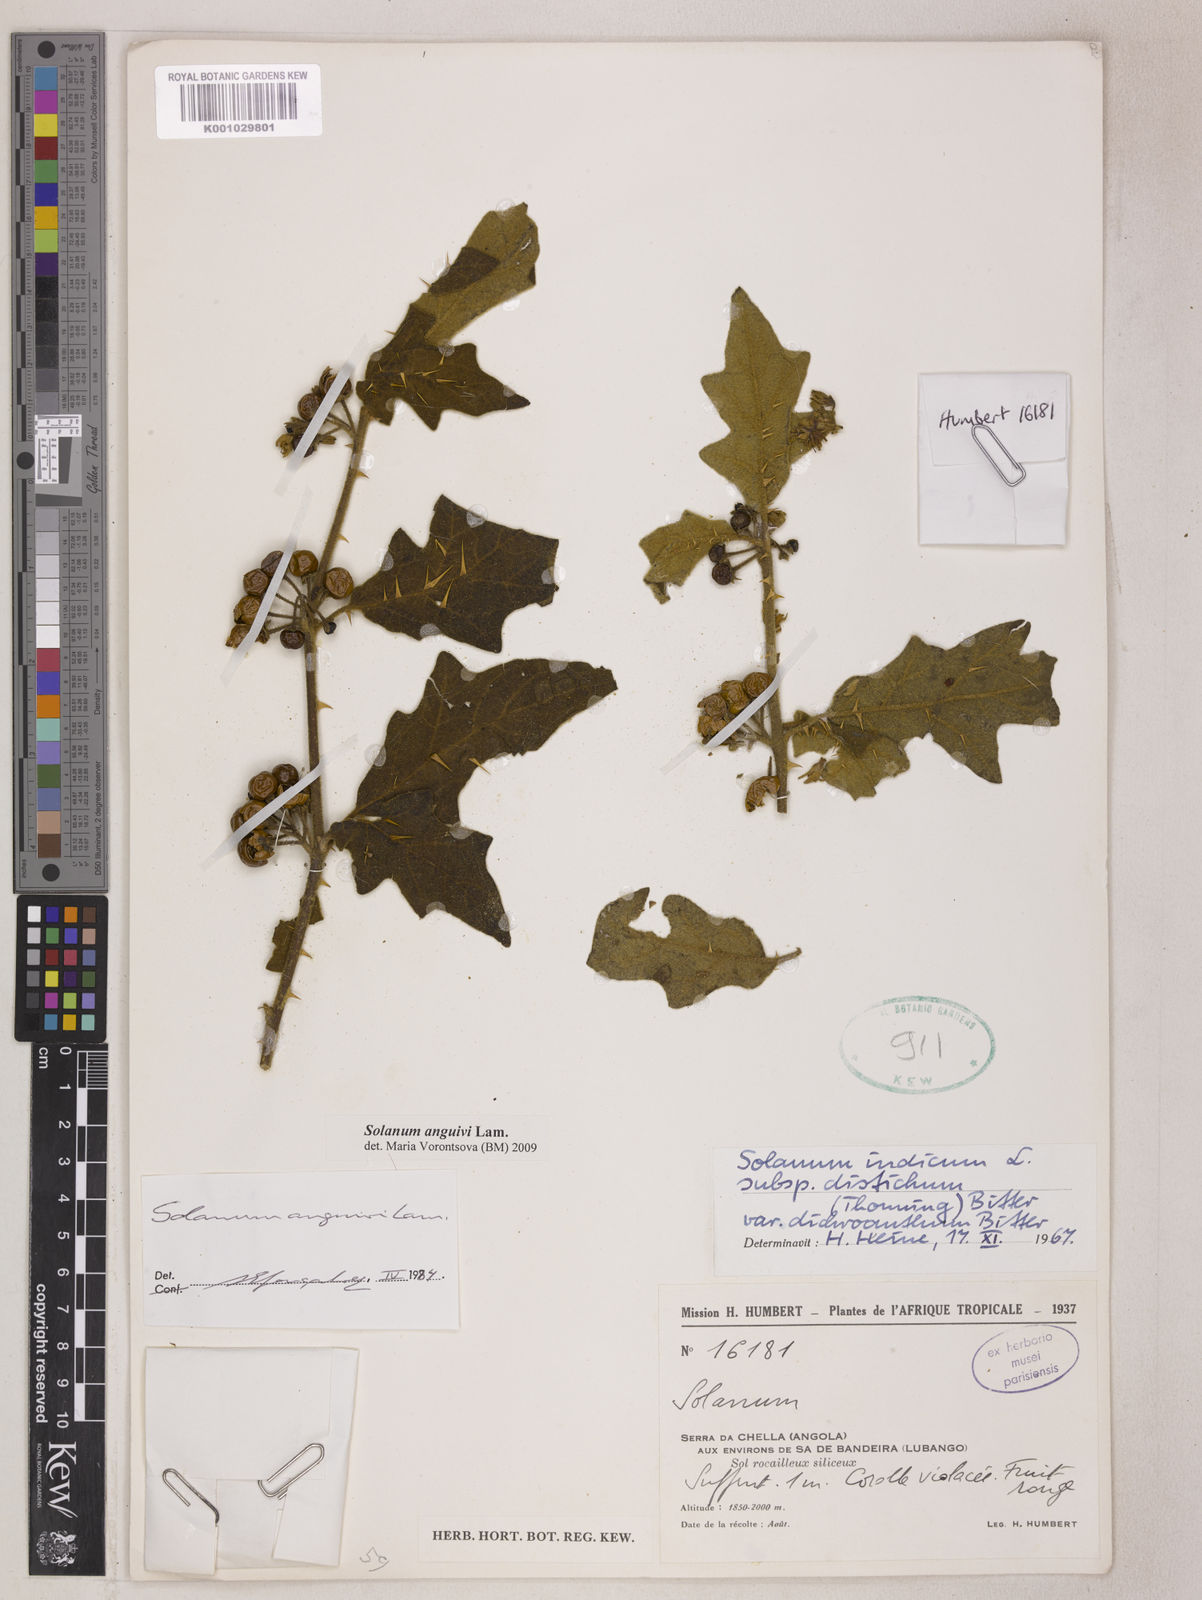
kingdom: Plantae
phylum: Tracheophyta
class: Magnoliopsida
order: Solanales
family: Solanaceae
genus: Solanum
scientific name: Solanum anguivi
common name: Forest bitterberry
